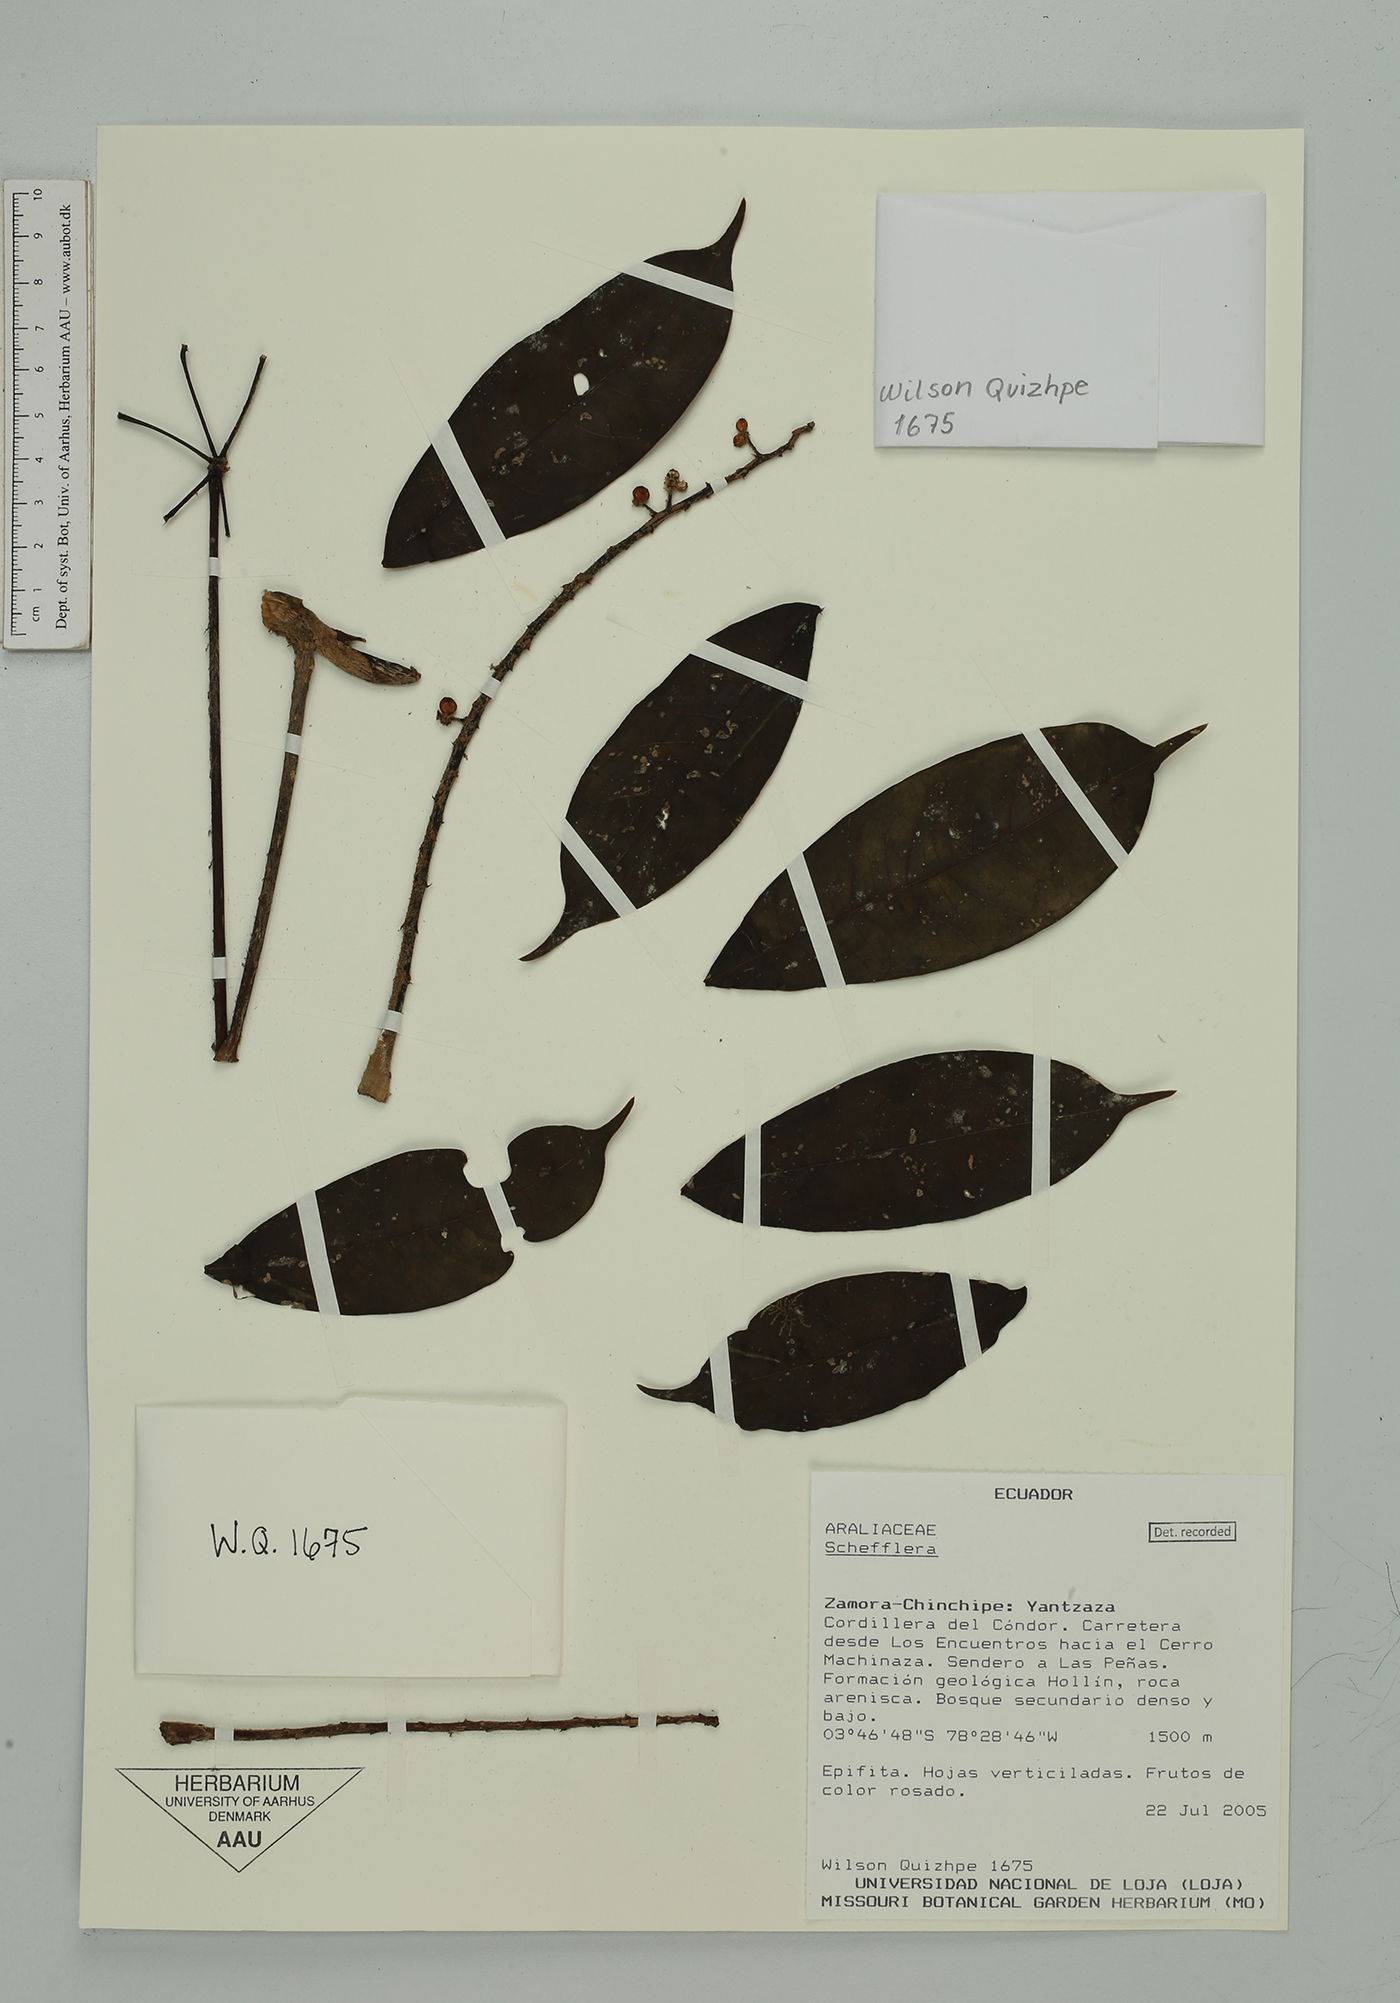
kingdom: Plantae
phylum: Tracheophyta
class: Magnoliopsida
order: Apiales
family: Araliaceae
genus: Sciodaphyllum
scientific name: Sciodaphyllum
